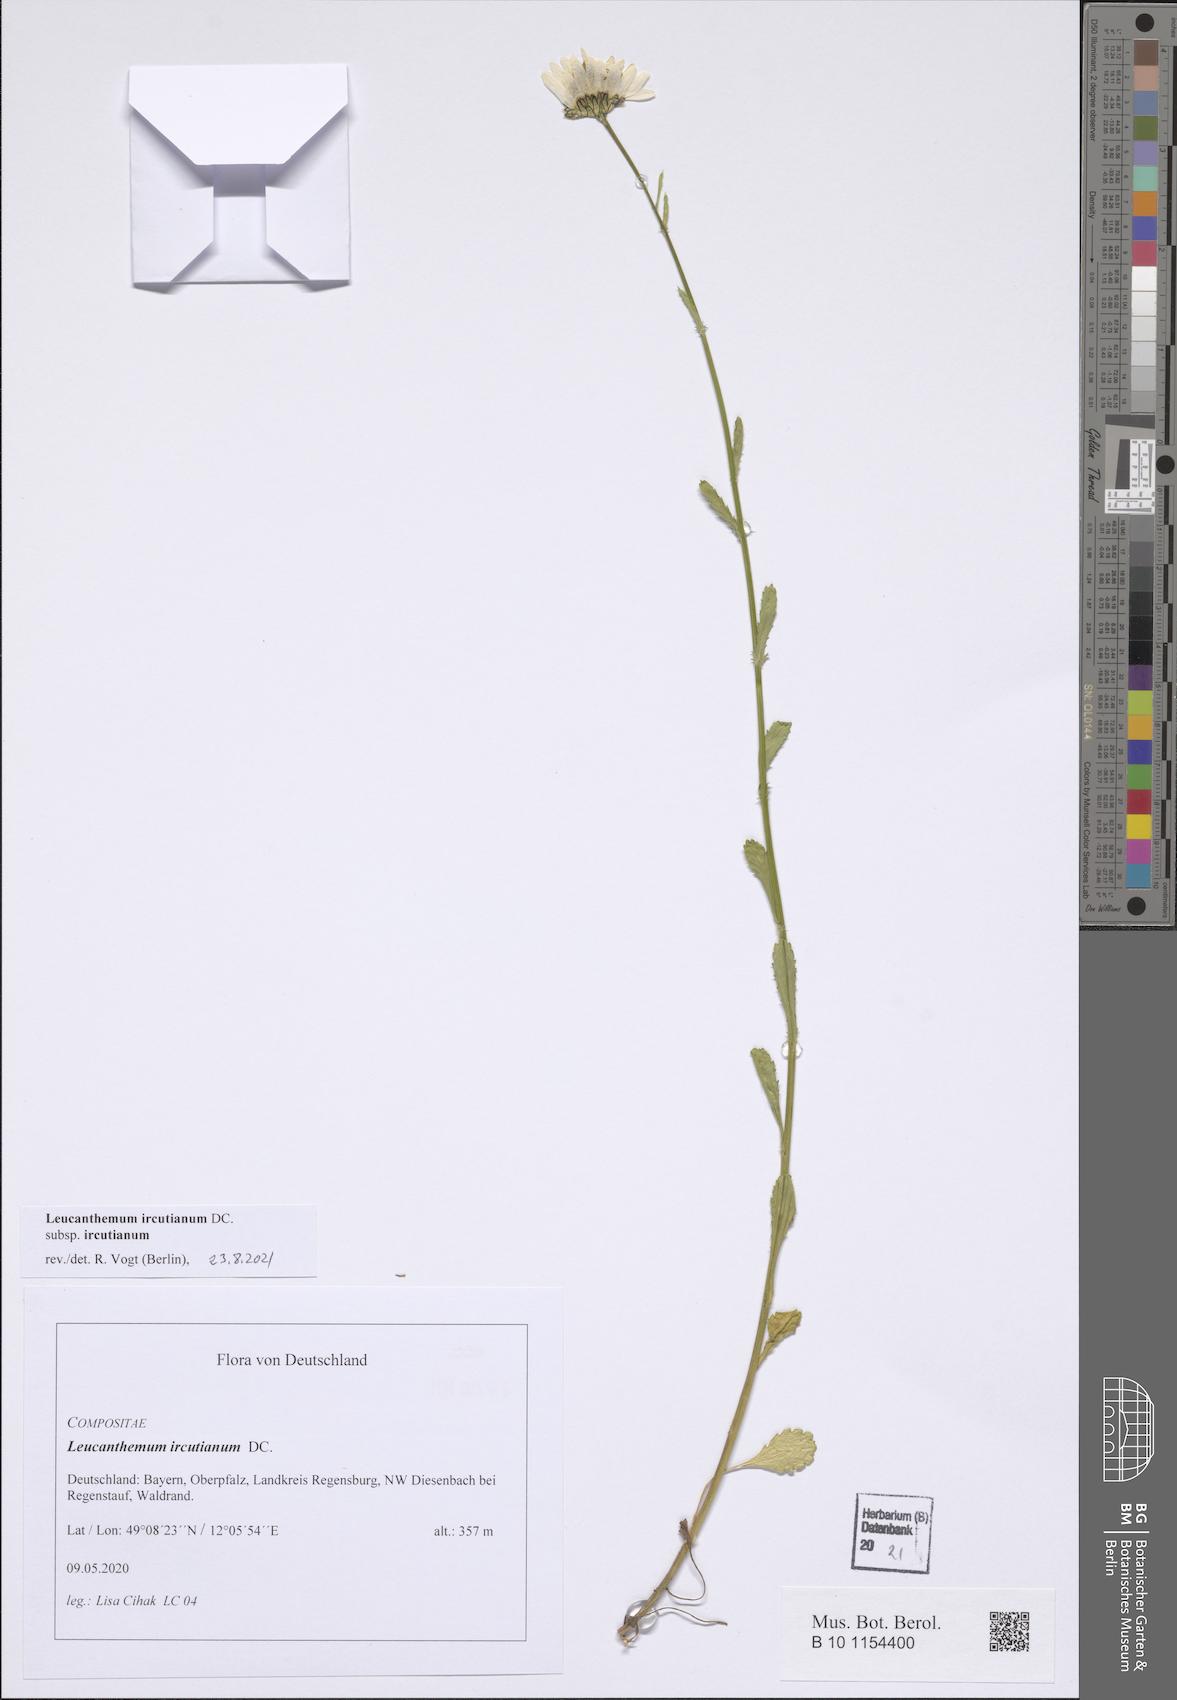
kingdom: Plantae
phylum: Tracheophyta
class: Magnoliopsida
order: Asterales
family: Asteraceae
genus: Leucanthemum
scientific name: Leucanthemum ircutianum
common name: Daisy
